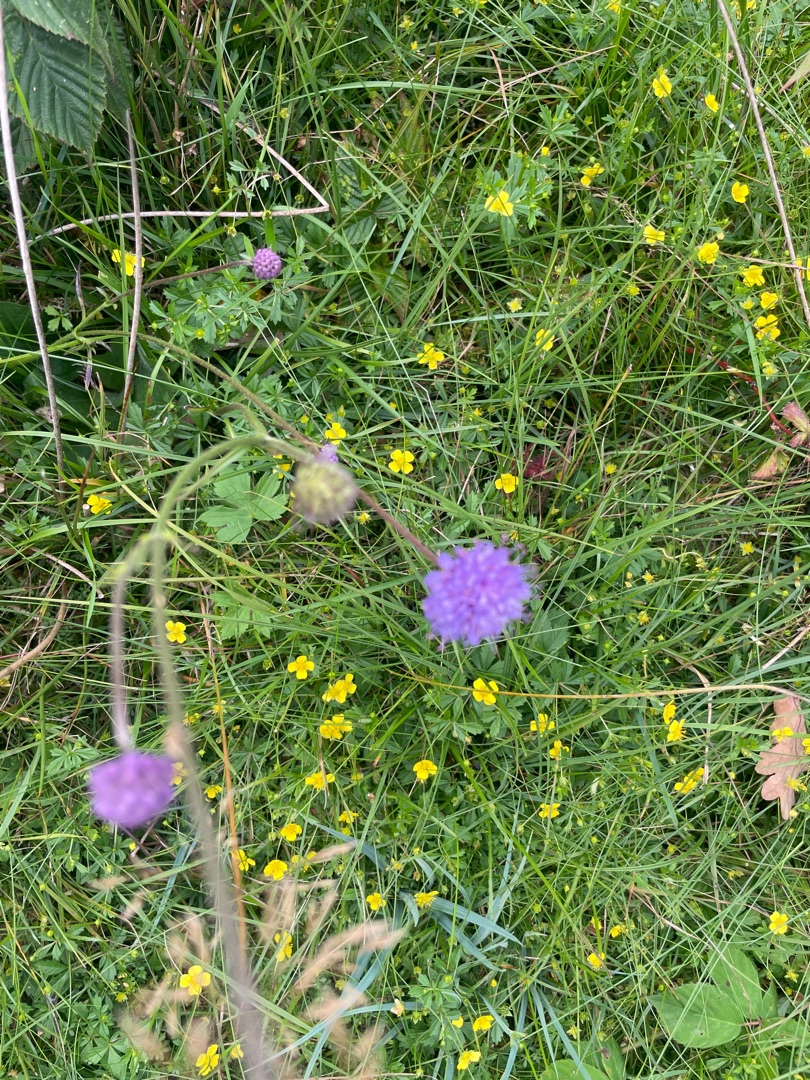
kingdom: Plantae
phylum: Tracheophyta
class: Magnoliopsida
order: Dipsacales
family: Caprifoliaceae
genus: Succisa
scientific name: Succisa pratensis
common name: Djævelsbid
